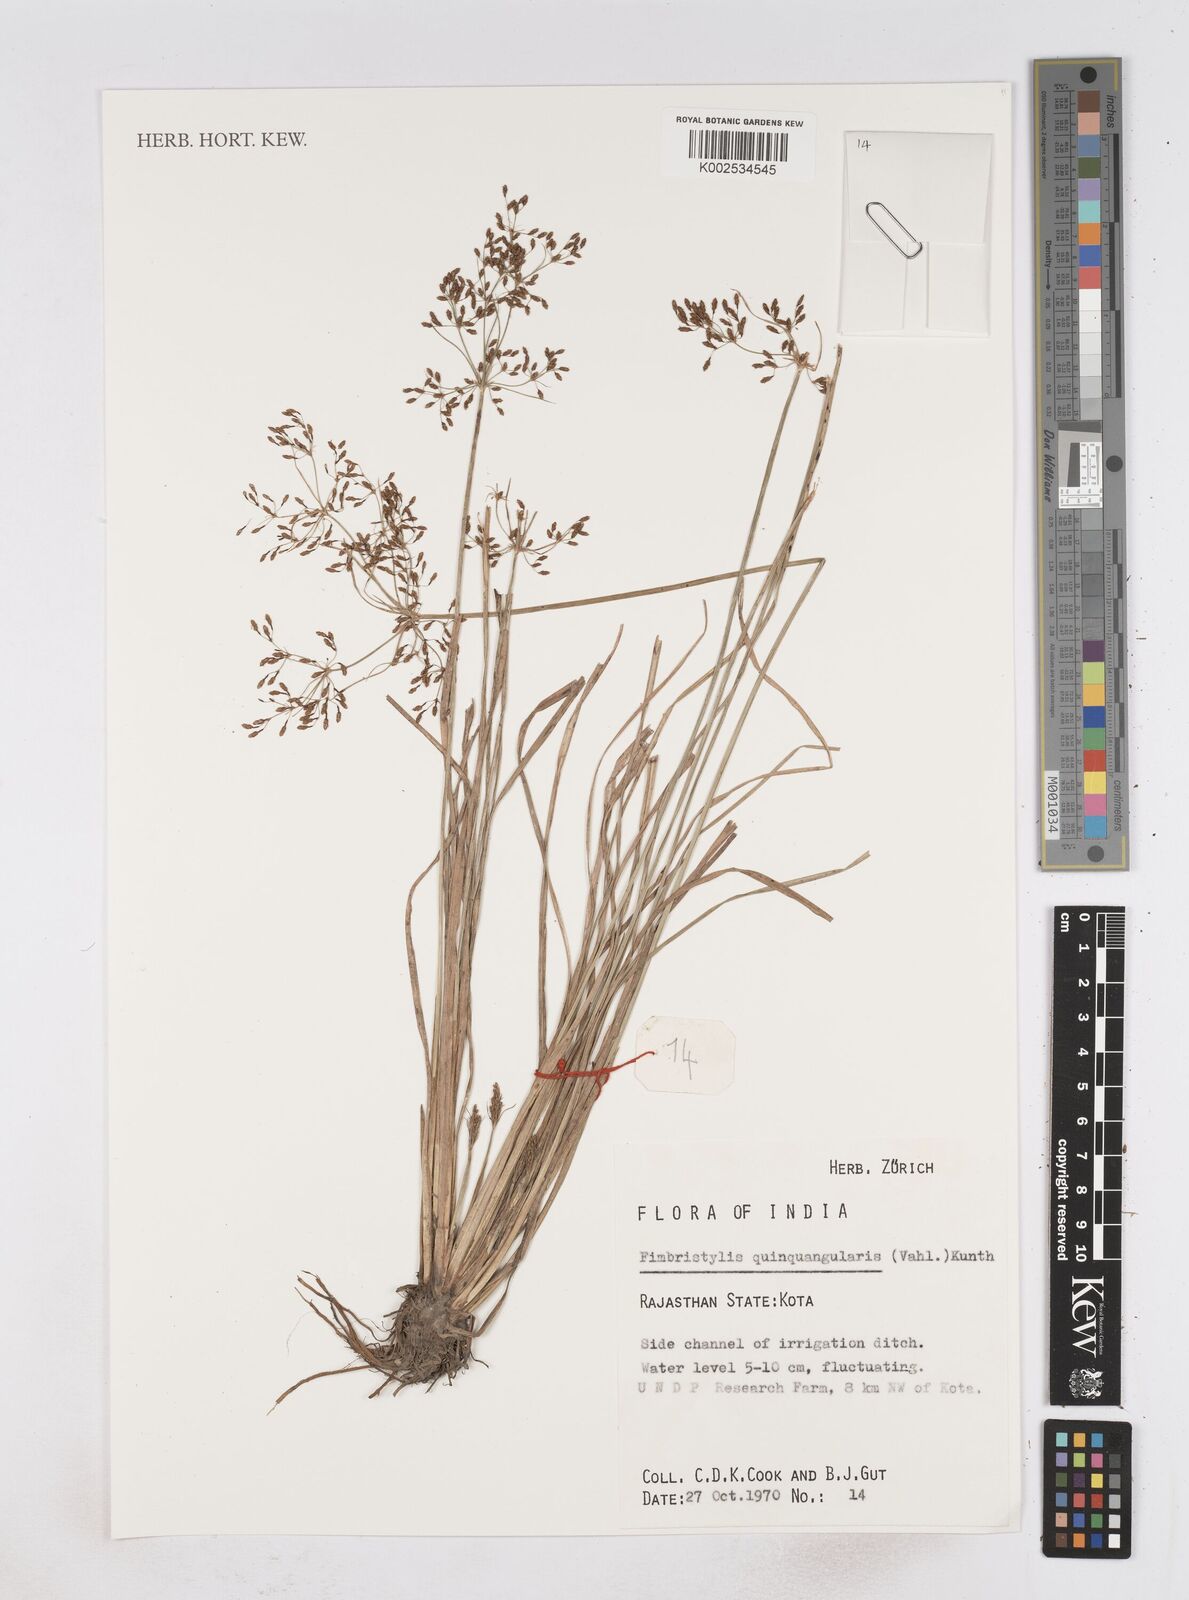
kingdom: Plantae
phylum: Tracheophyta
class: Liliopsida
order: Poales
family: Cyperaceae
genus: Fimbristylis
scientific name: Fimbristylis quinquangularis
